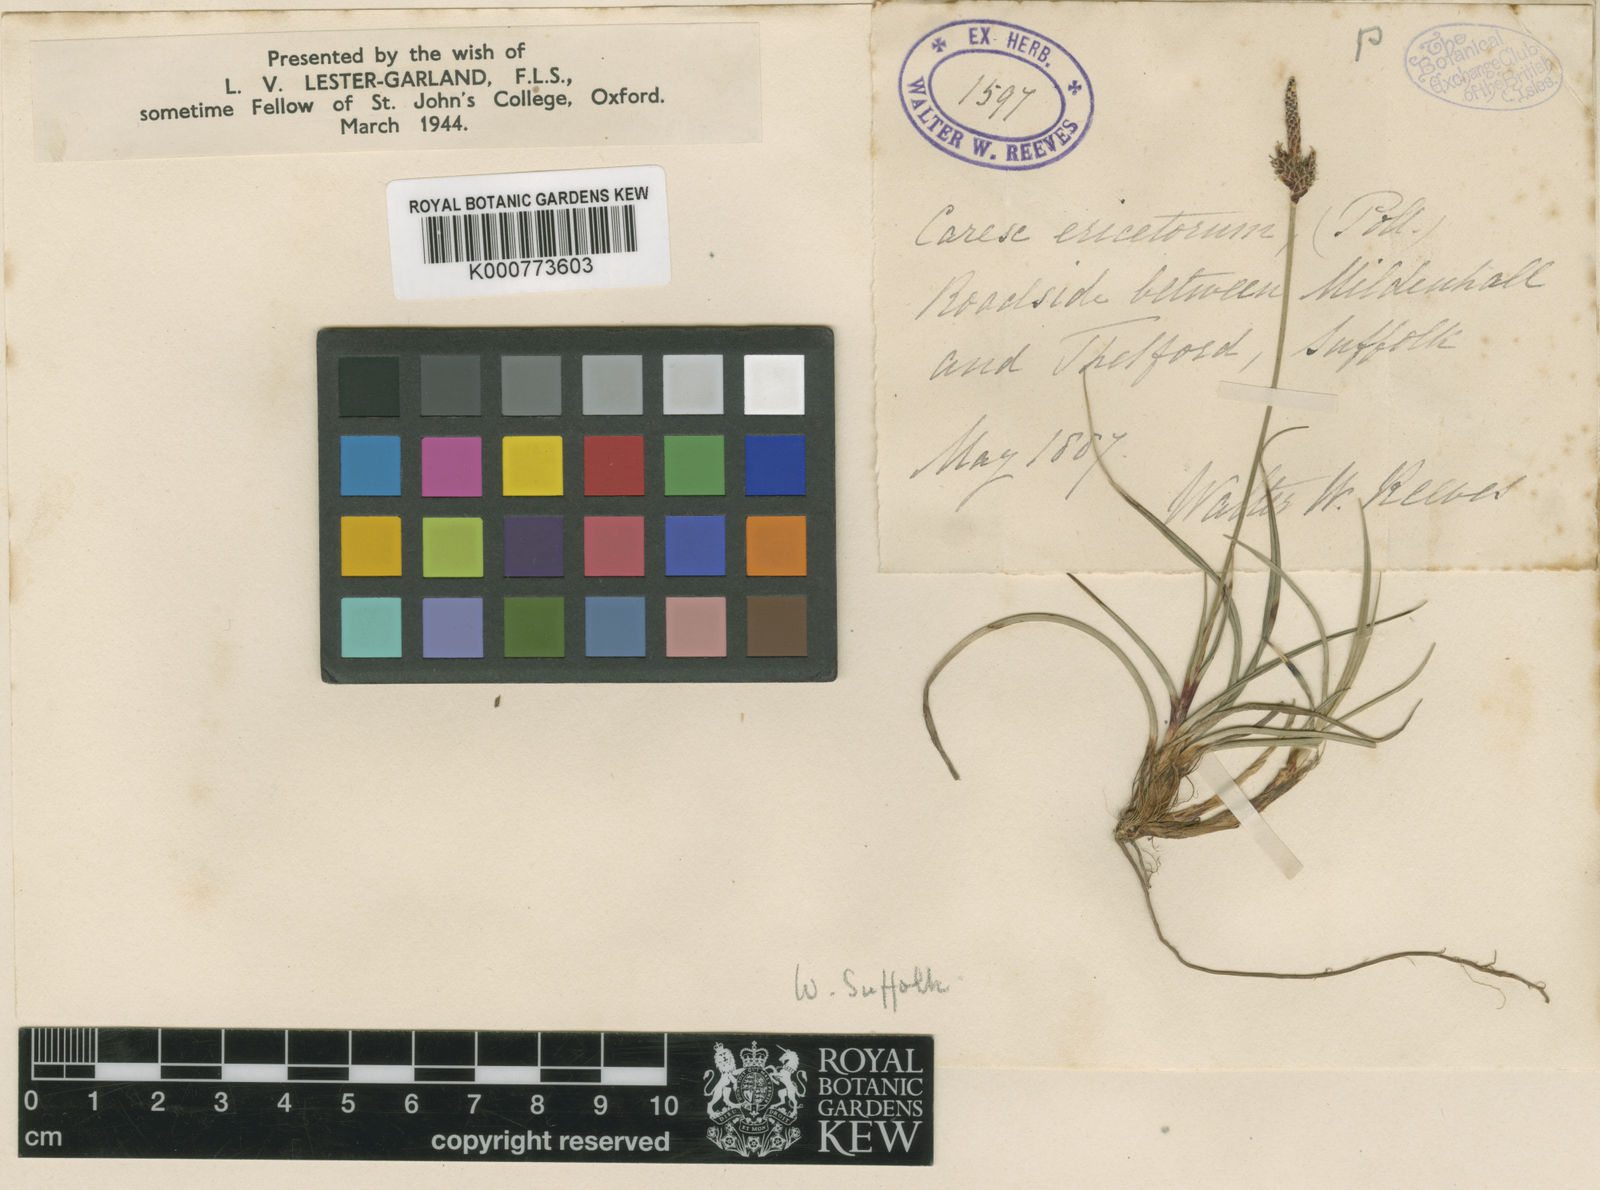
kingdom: Plantae
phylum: Tracheophyta
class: Liliopsida
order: Poales
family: Cyperaceae
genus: Carex
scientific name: Carex ericetorum
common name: Rare spring-sedge
